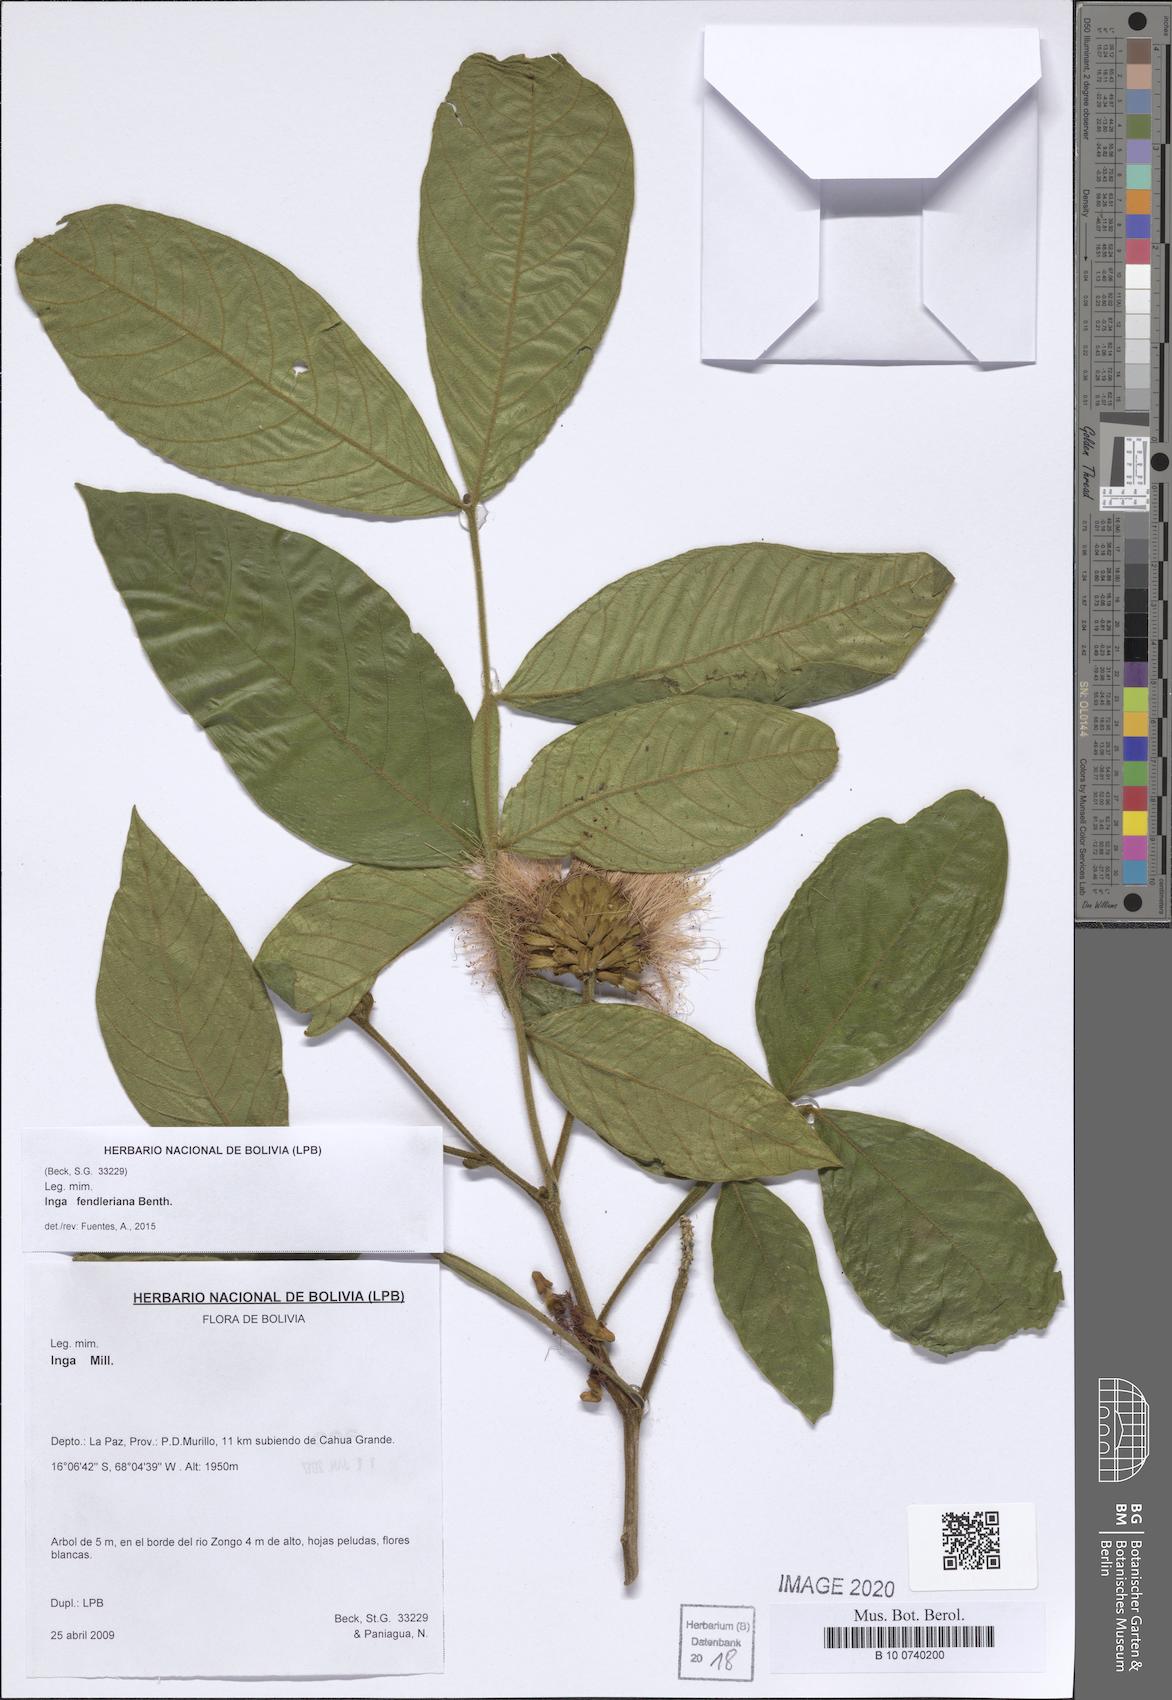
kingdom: Plantae
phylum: Tracheophyta
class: Magnoliopsida
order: Fabales
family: Fabaceae
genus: Inga
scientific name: Inga fendleriana
